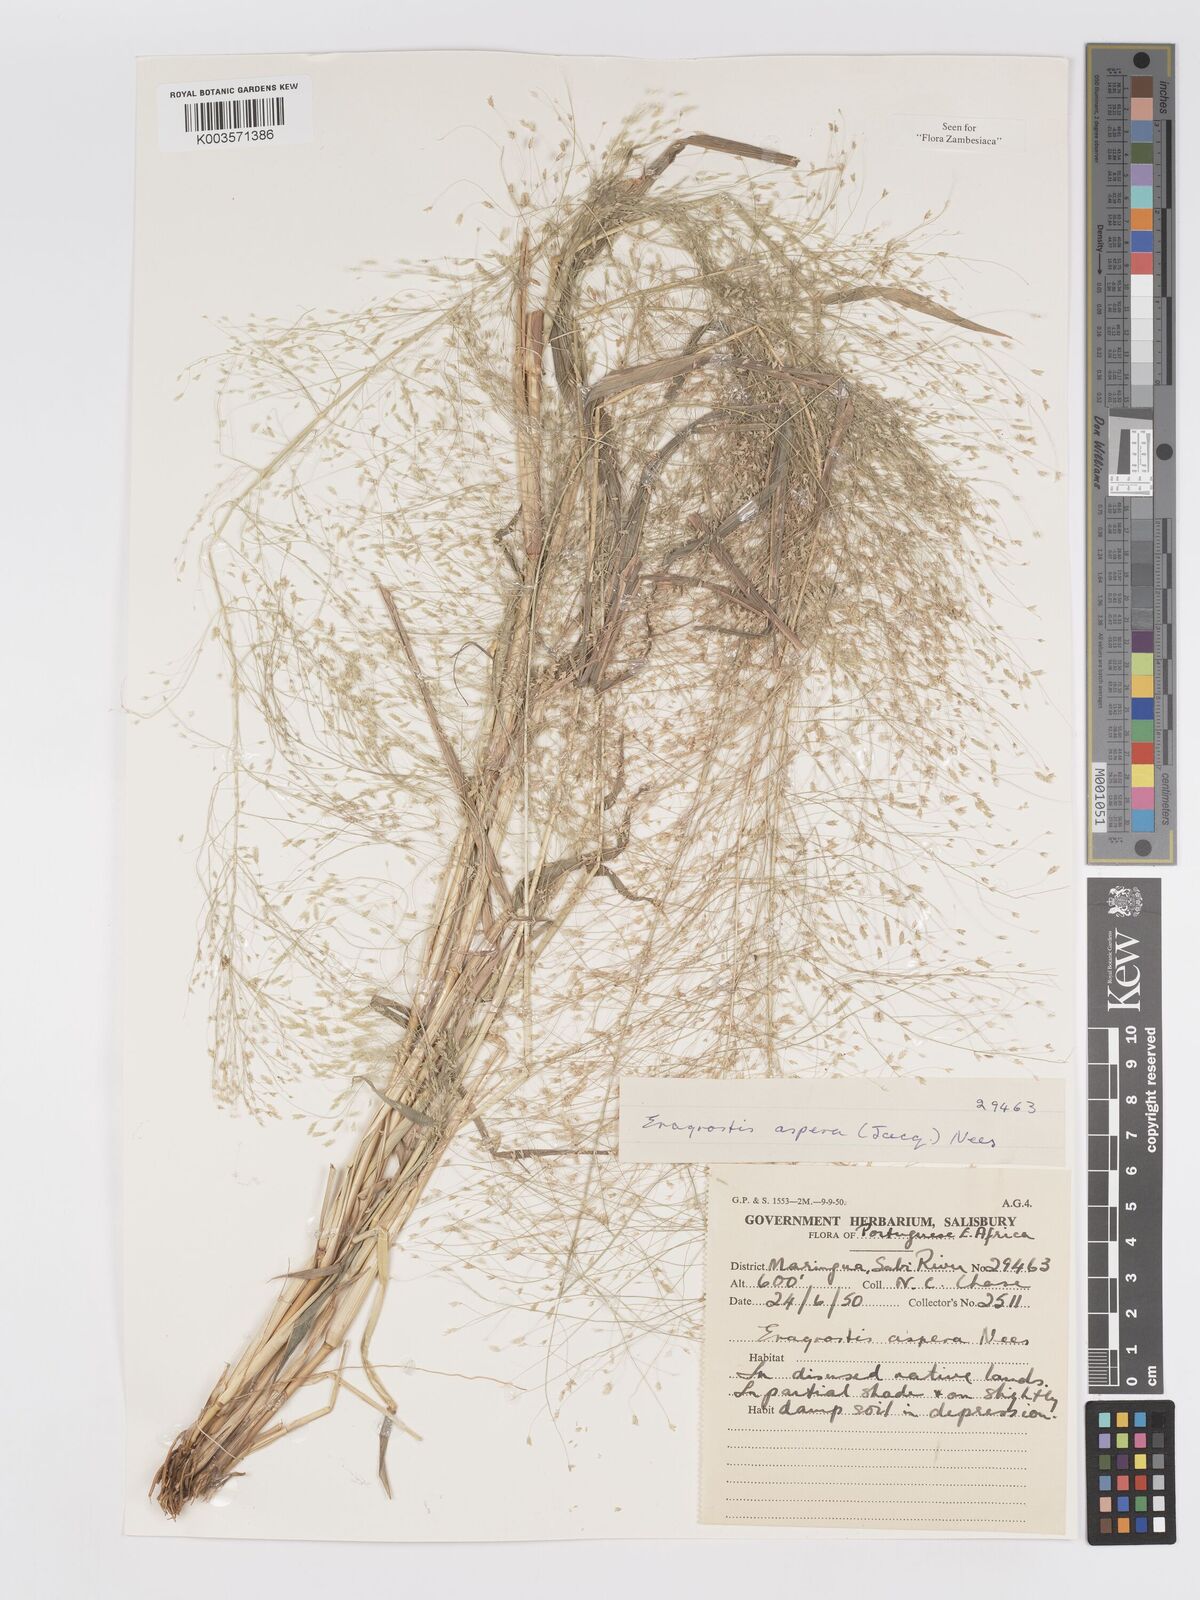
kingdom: Plantae
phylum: Tracheophyta
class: Liliopsida
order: Poales
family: Poaceae
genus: Eragrostis
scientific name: Eragrostis aspera
